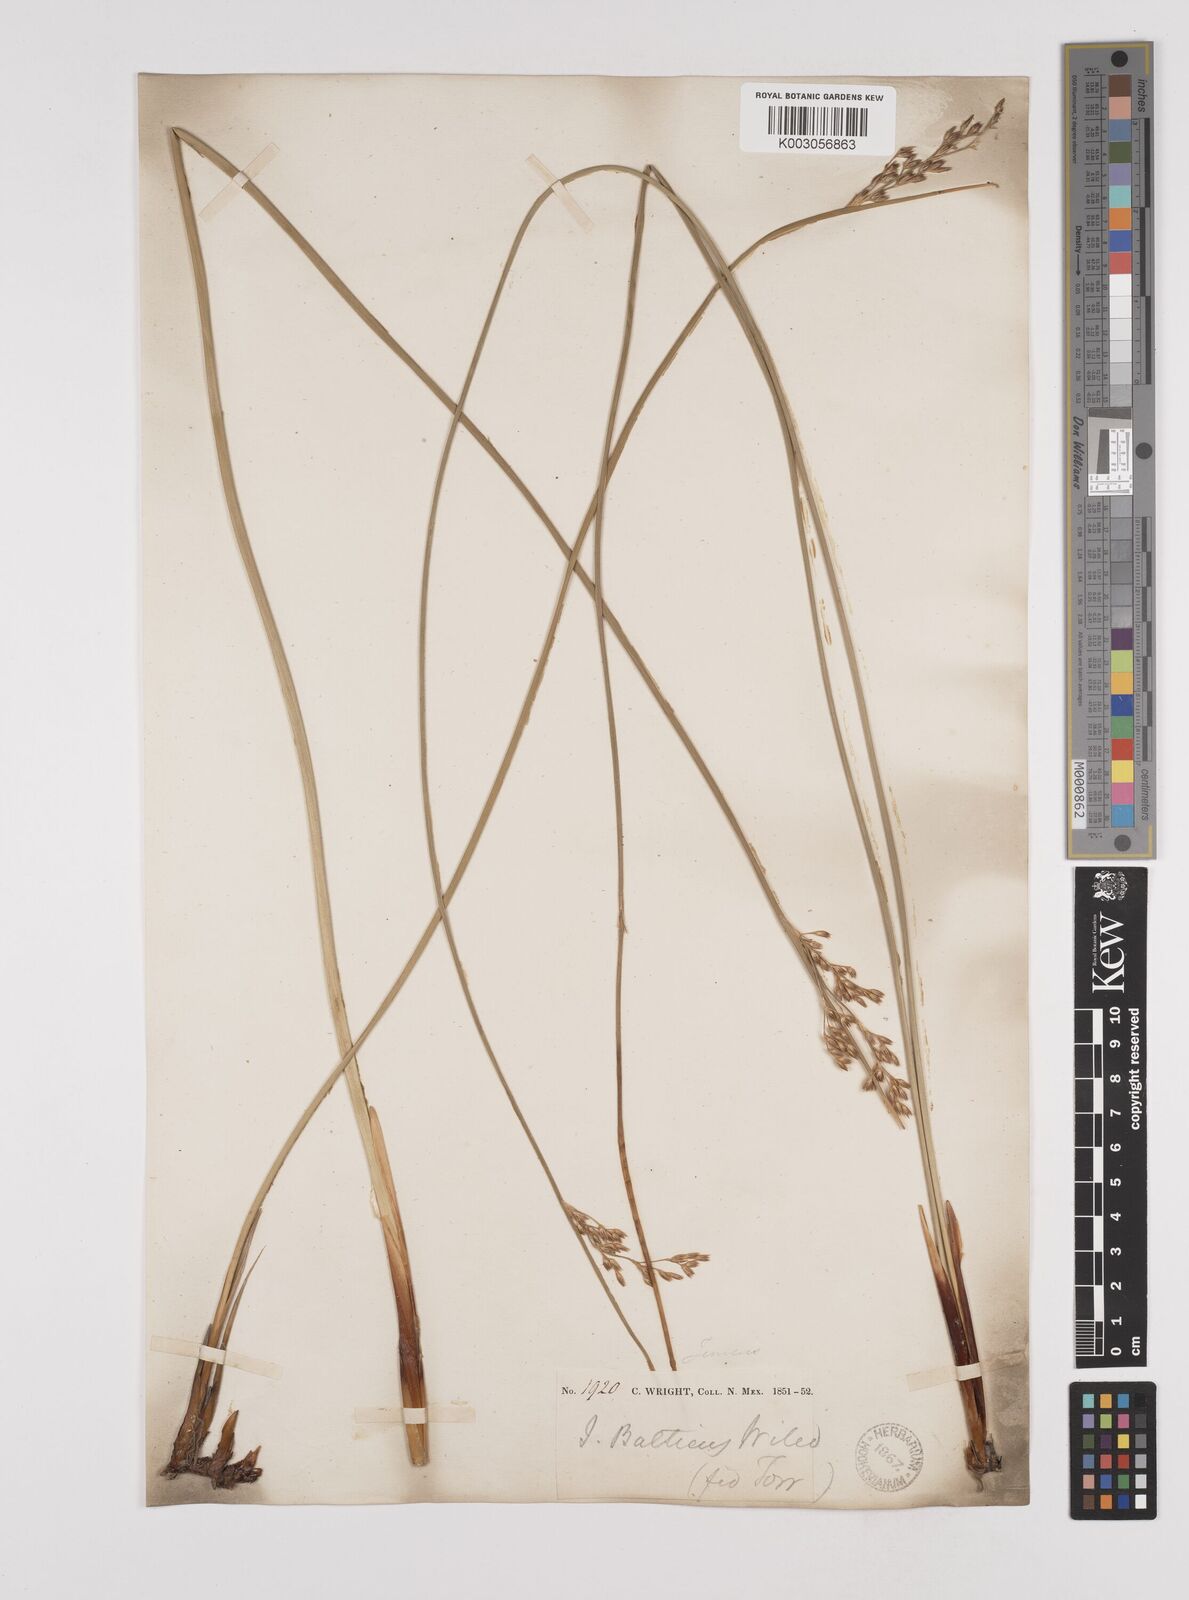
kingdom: Plantae
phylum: Tracheophyta
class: Liliopsida
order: Poales
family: Juncaceae
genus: Juncus
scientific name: Juncus balticus
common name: Baltic rush
